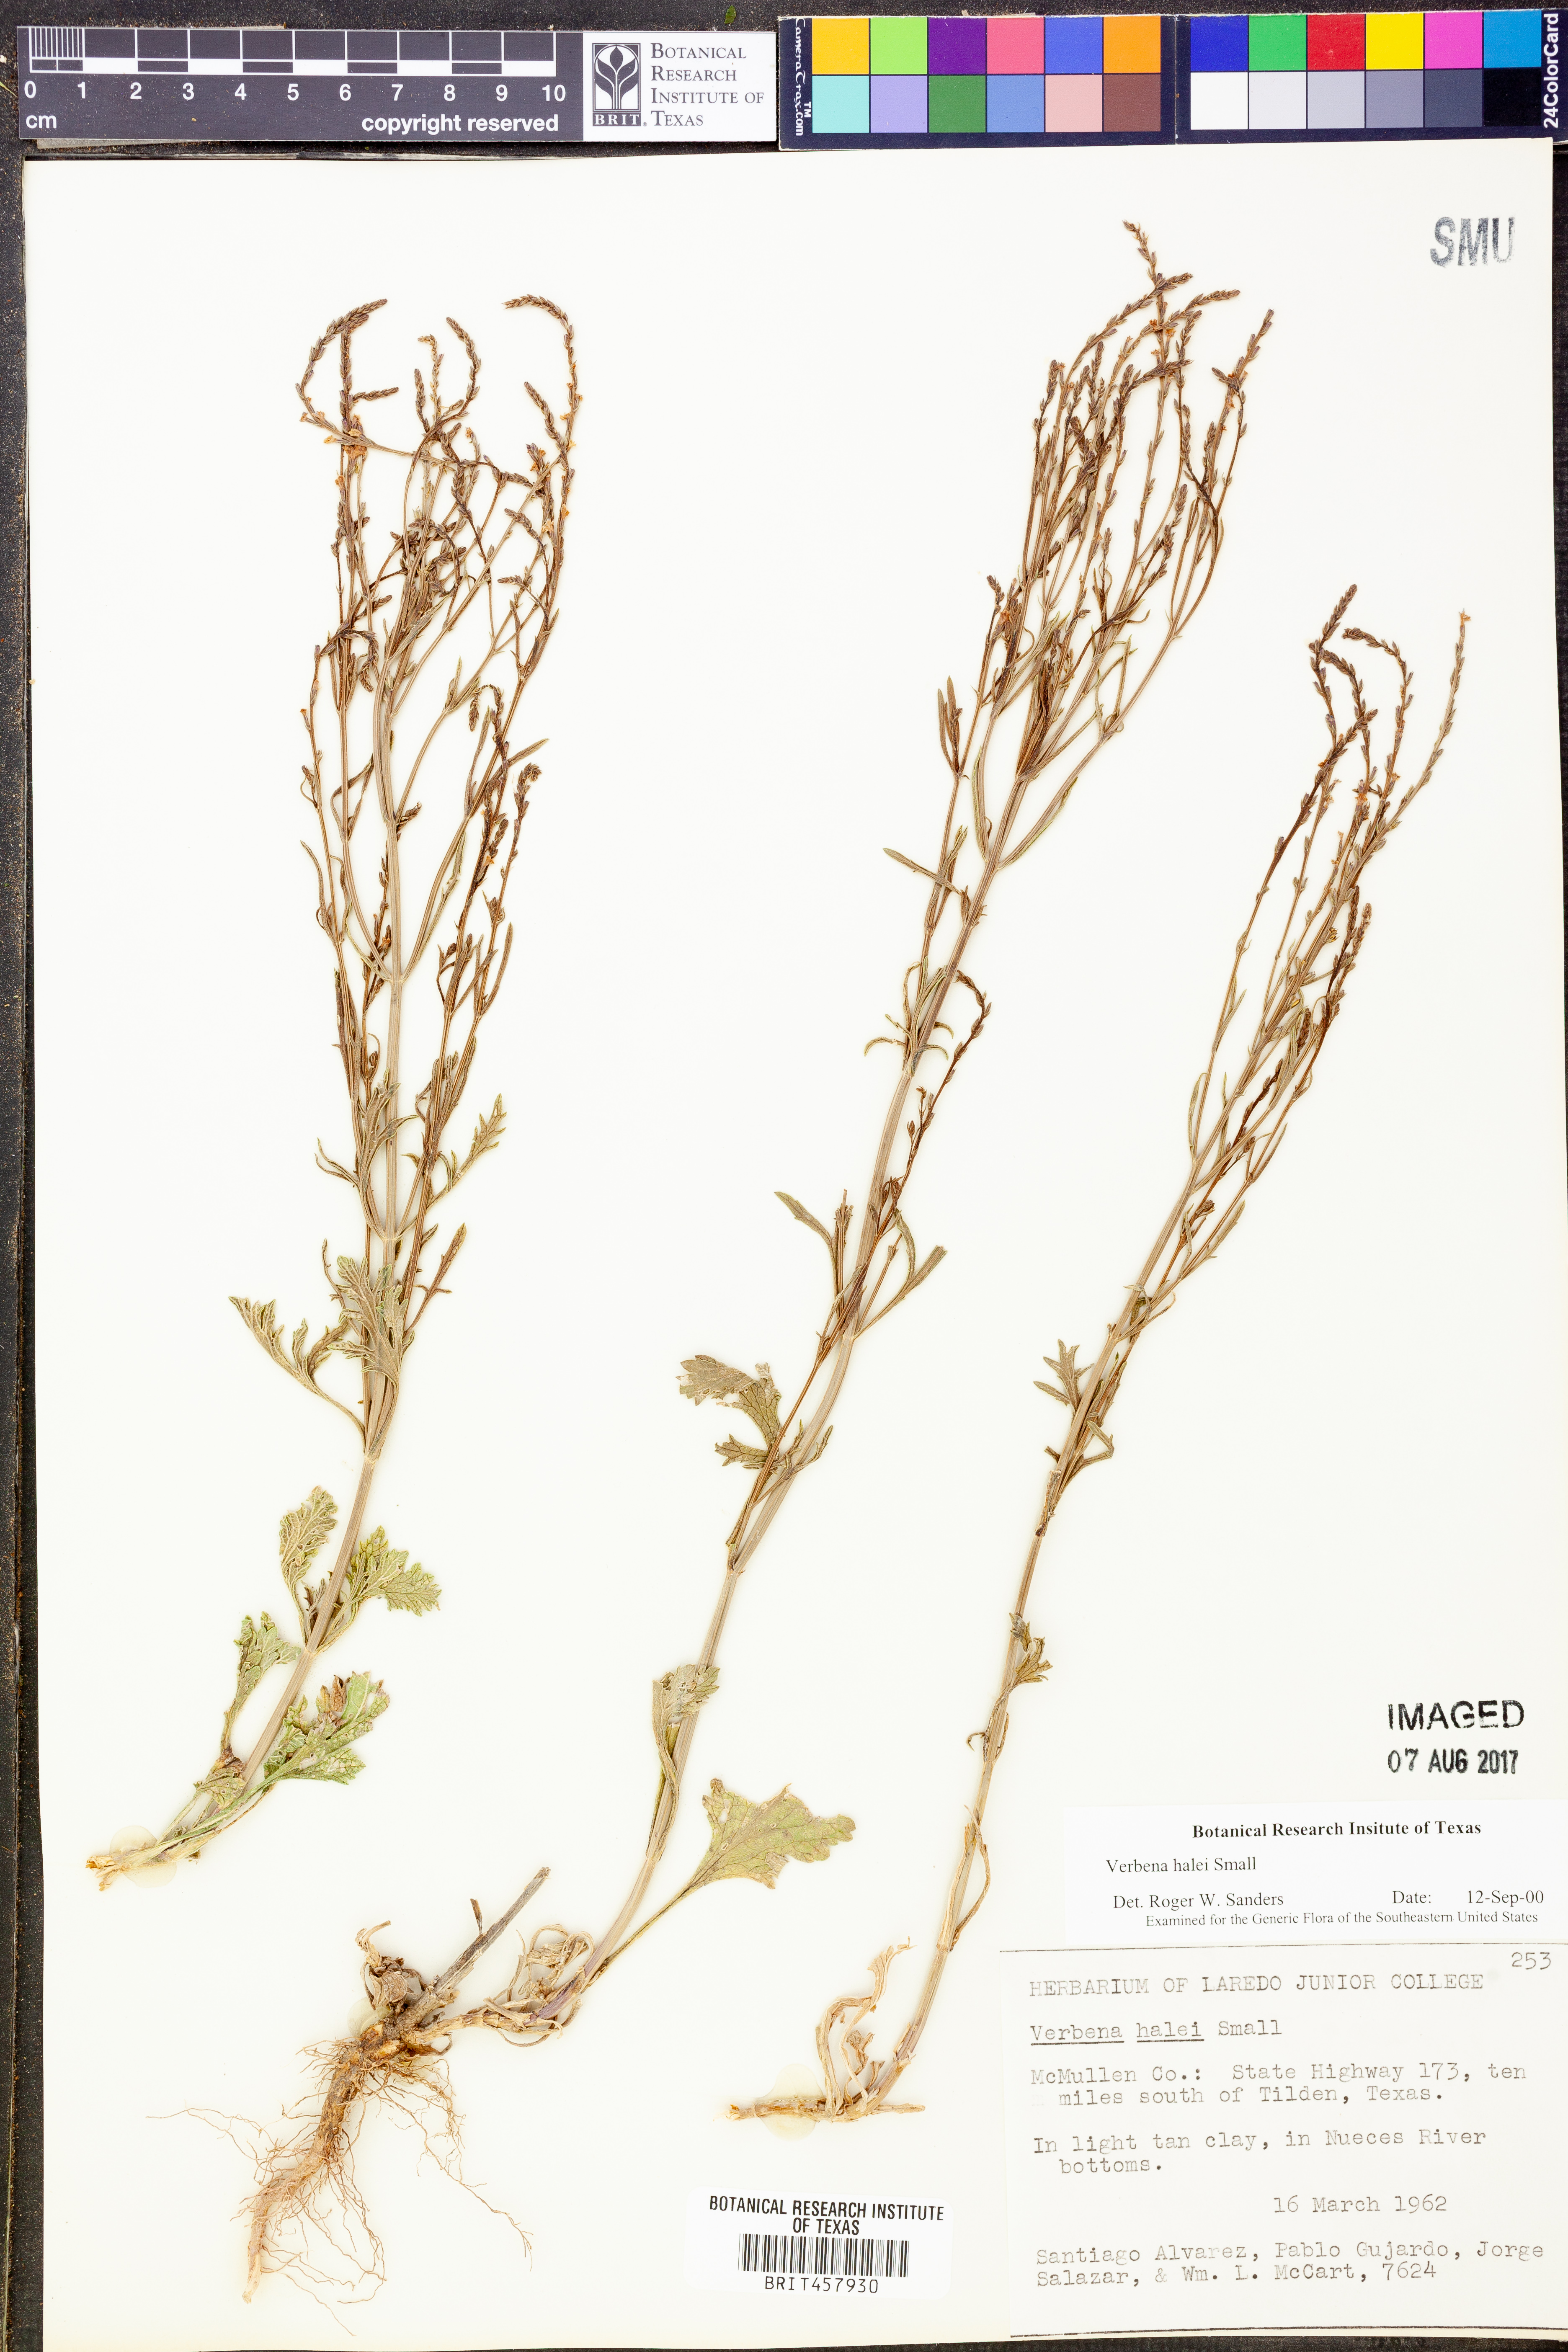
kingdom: Plantae
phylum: Tracheophyta
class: Magnoliopsida
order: Lamiales
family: Verbenaceae
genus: Verbena
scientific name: Verbena halei
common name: Texas vervain
